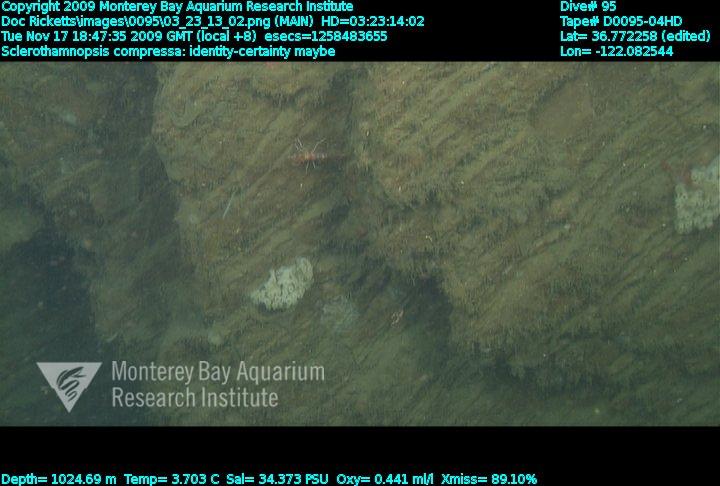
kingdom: Animalia
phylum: Porifera
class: Hexactinellida
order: Sceptrulophora
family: Tretodictyidae
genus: Sclerothamnopsis
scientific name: Sclerothamnopsis compressa
